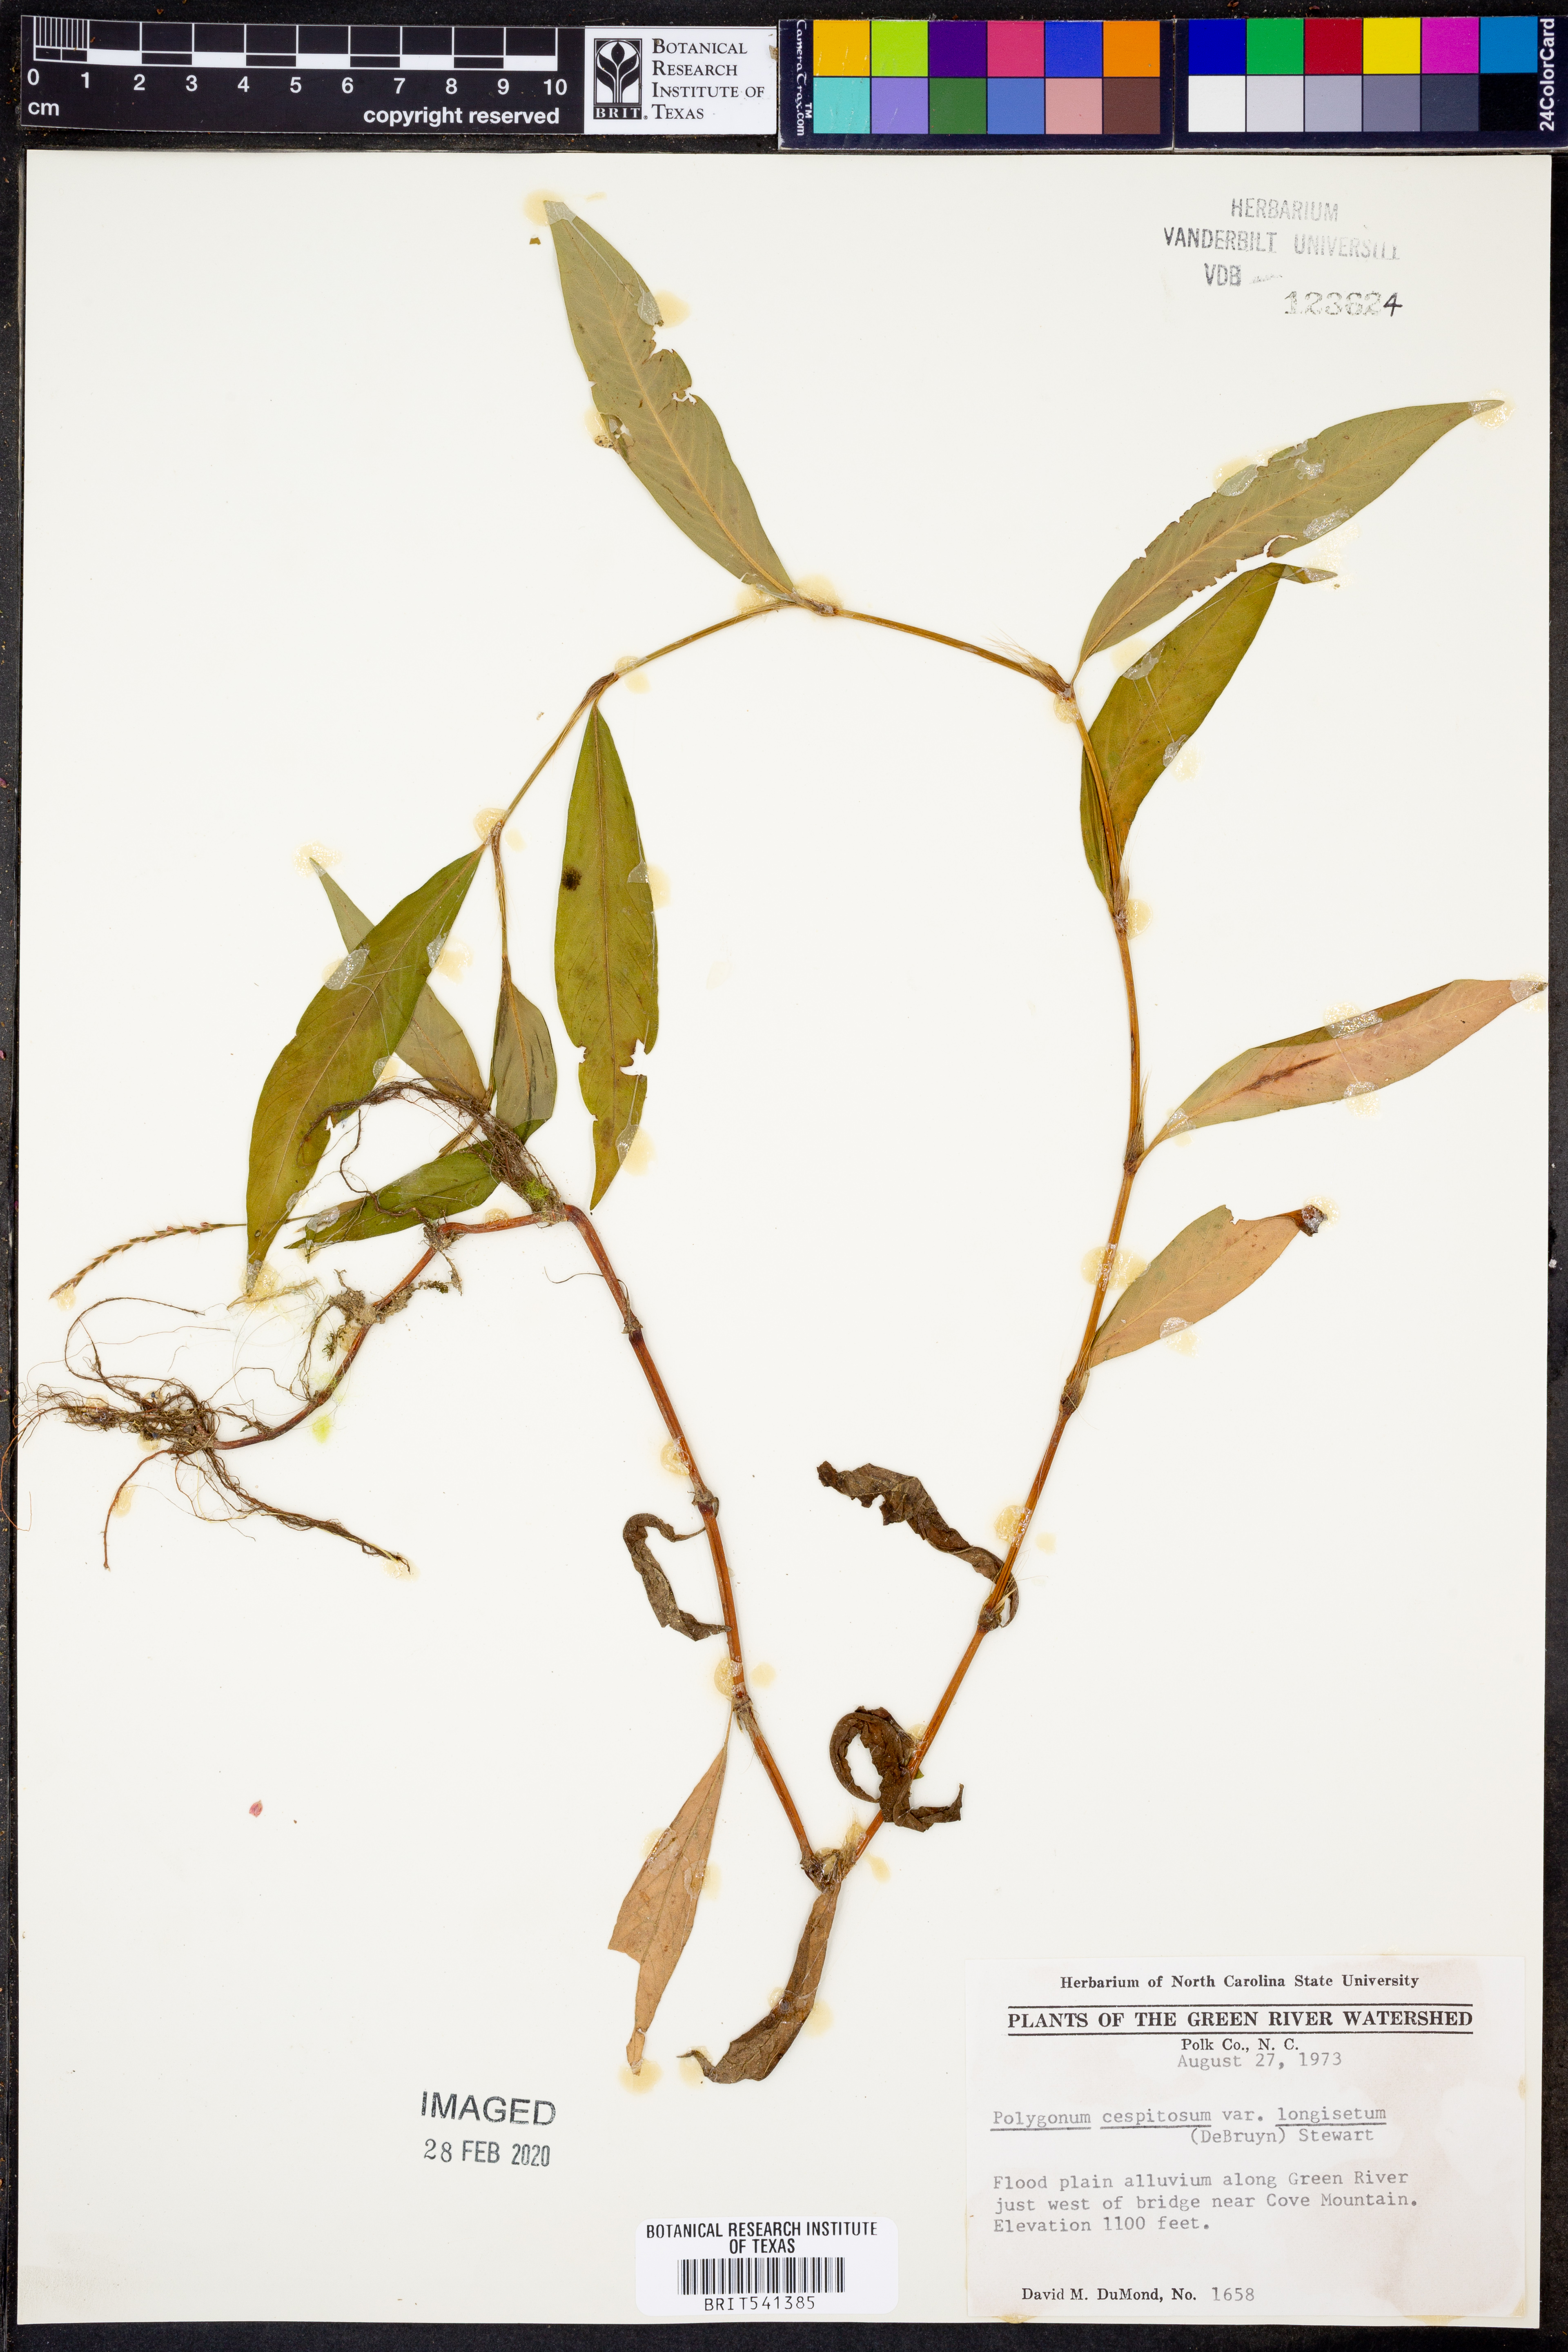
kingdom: Plantae
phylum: Tracheophyta
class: Magnoliopsida
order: Caryophyllales
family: Polygonaceae
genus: Persicaria
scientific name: Persicaria longiseta
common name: Bristly lady's-thumb
